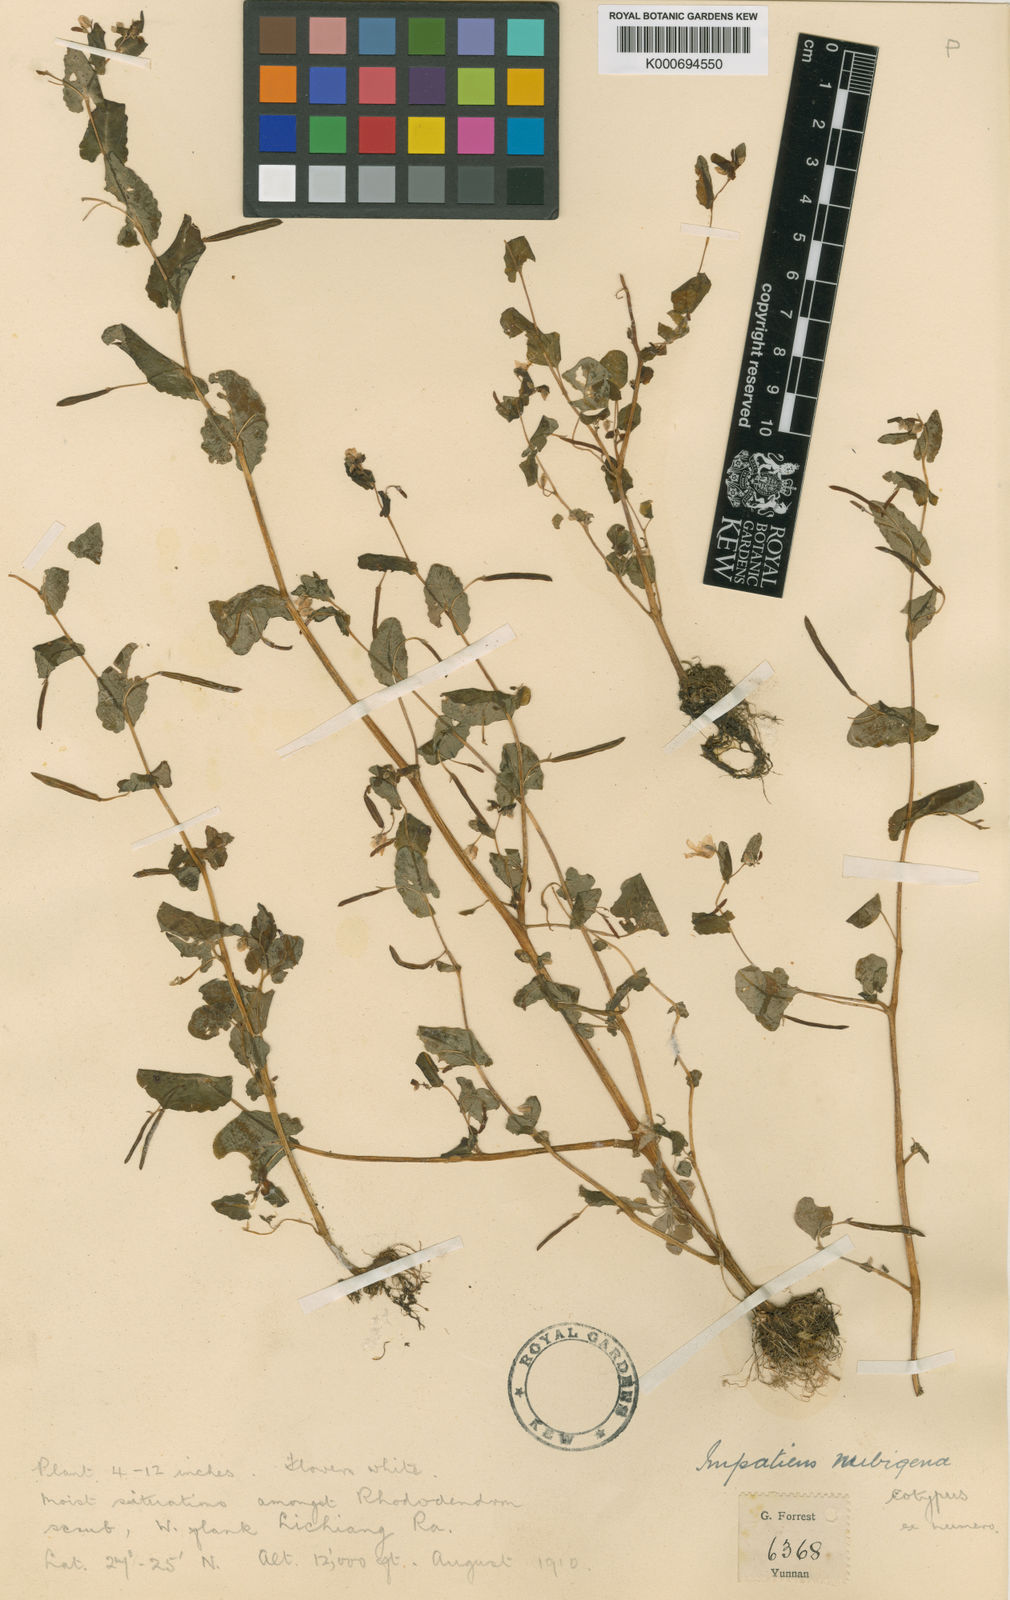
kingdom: Plantae
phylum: Tracheophyta
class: Magnoliopsida
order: Ericales
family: Balsaminaceae
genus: Impatiens
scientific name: Impatiens nubigena
